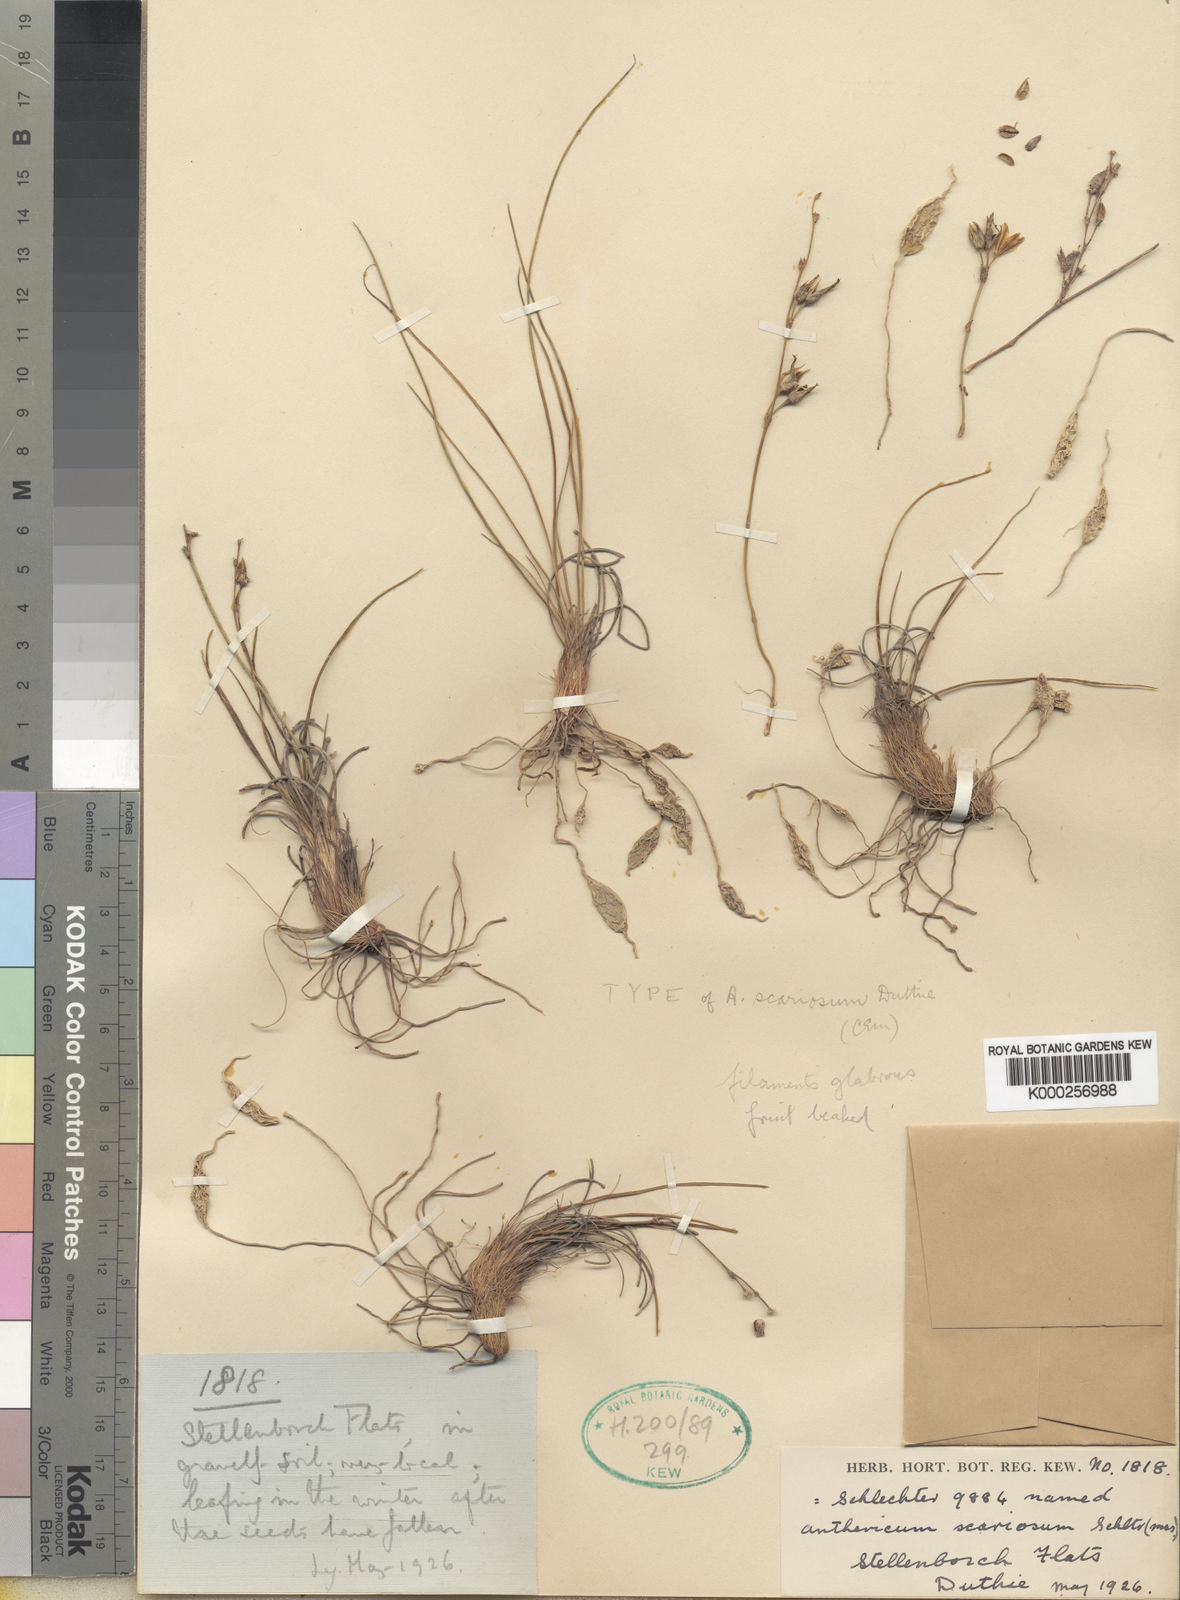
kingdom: Plantae
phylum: Tracheophyta
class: Liliopsida
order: Asparagales
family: Asparagaceae
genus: Chlorophytum
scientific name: Chlorophytum rangei
